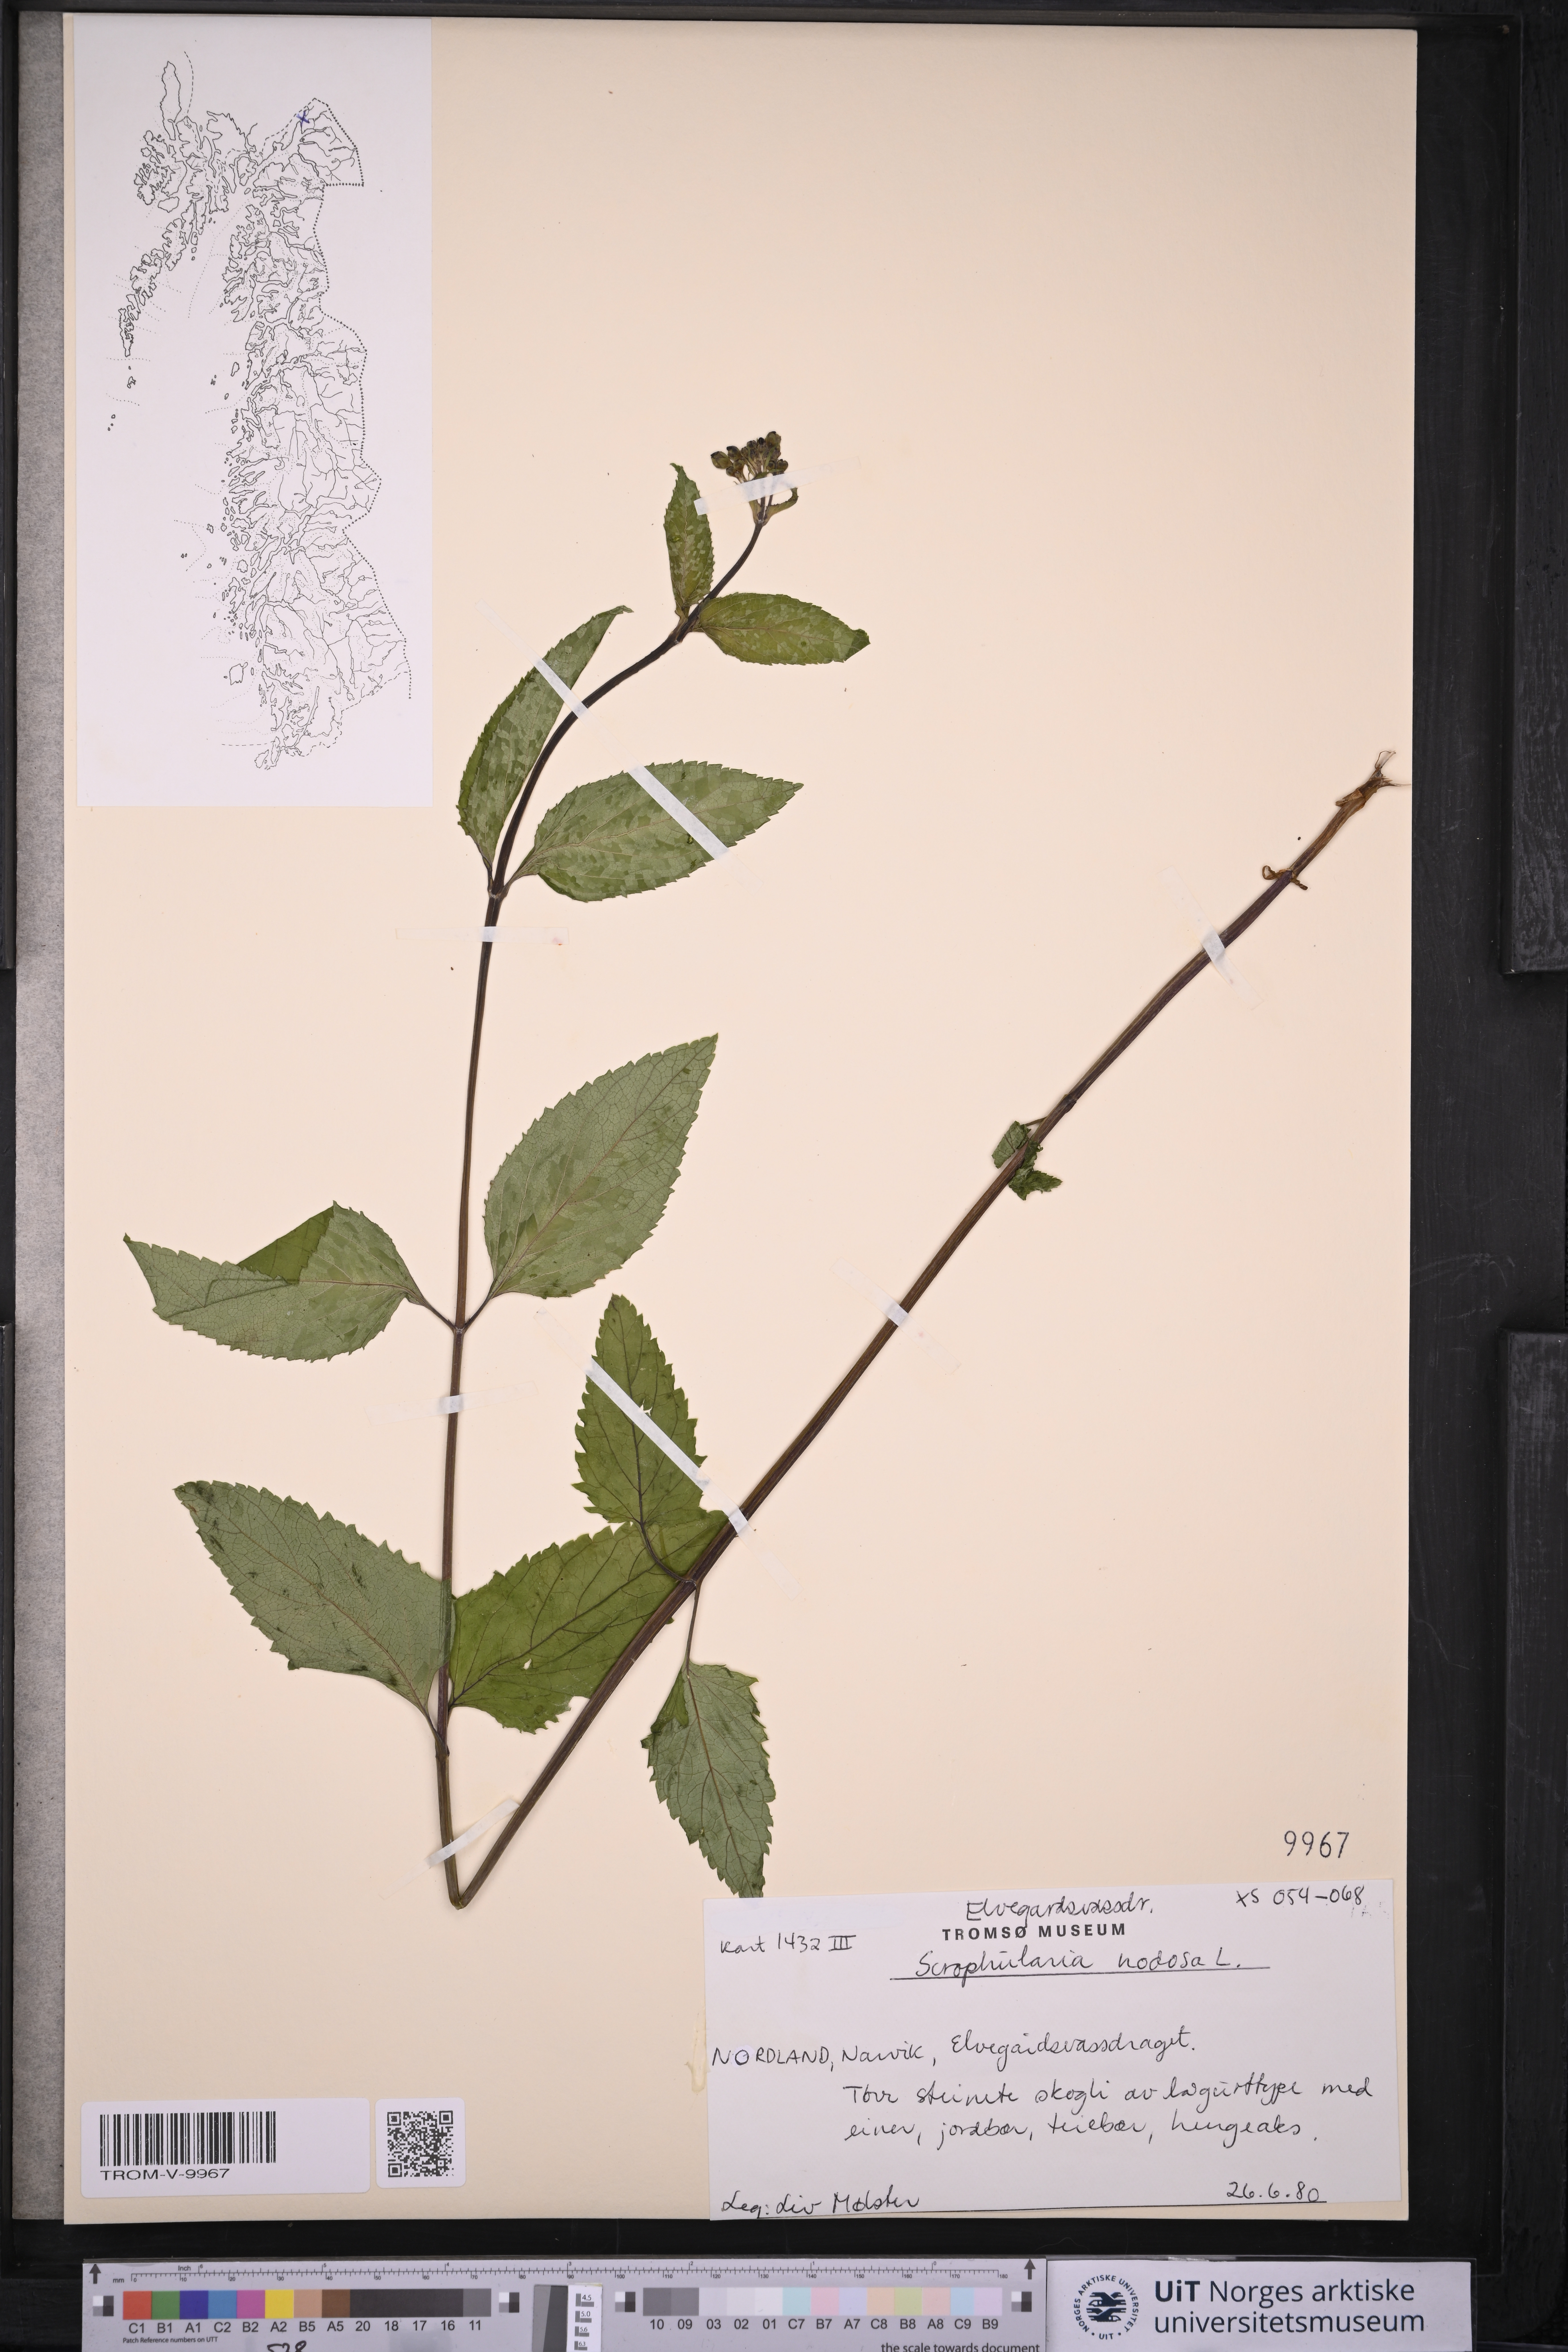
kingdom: Plantae
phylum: Tracheophyta
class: Magnoliopsida
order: Lamiales
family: Scrophulariaceae
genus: Scrophularia
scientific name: Scrophularia nodosa
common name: Common figwort
